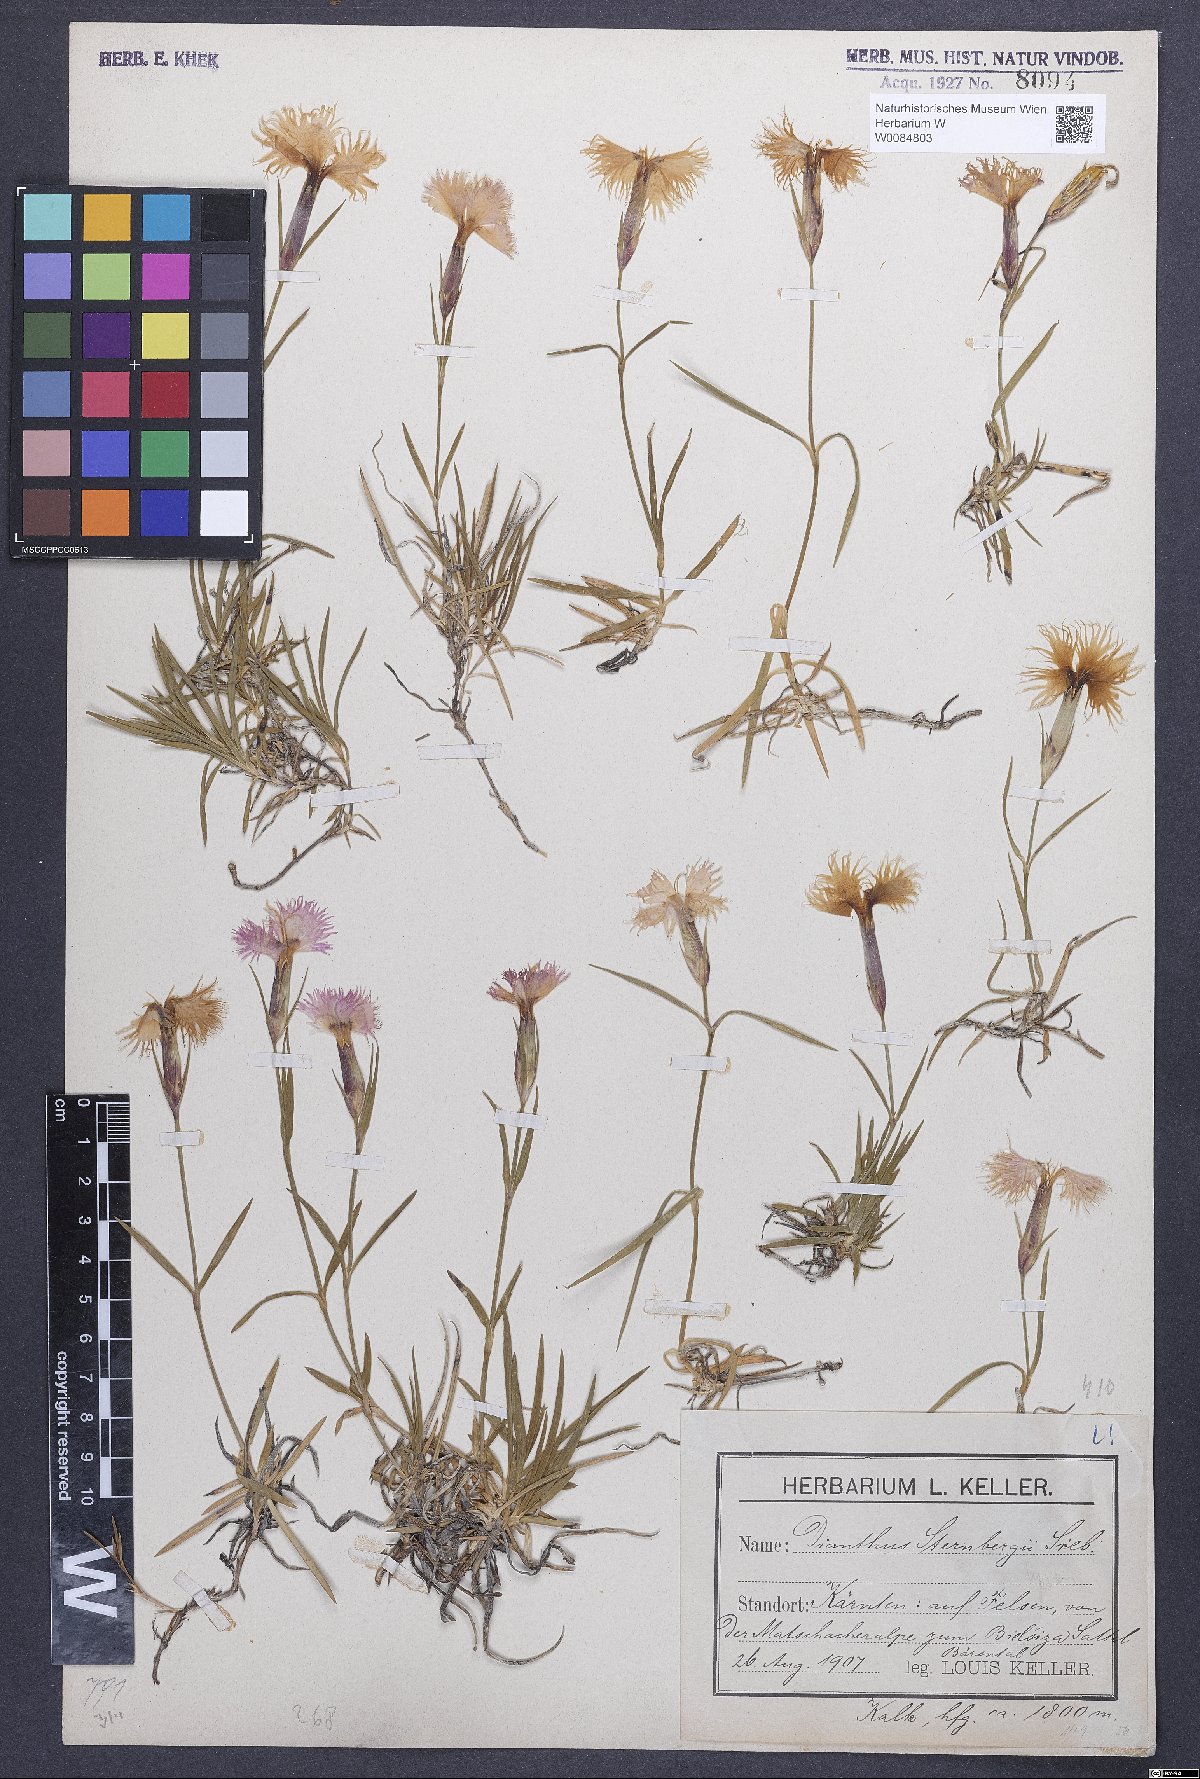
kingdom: Plantae
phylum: Tracheophyta
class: Magnoliopsida
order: Caryophyllales
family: Caryophyllaceae
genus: Dianthus
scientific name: Dianthus monspessulanus
